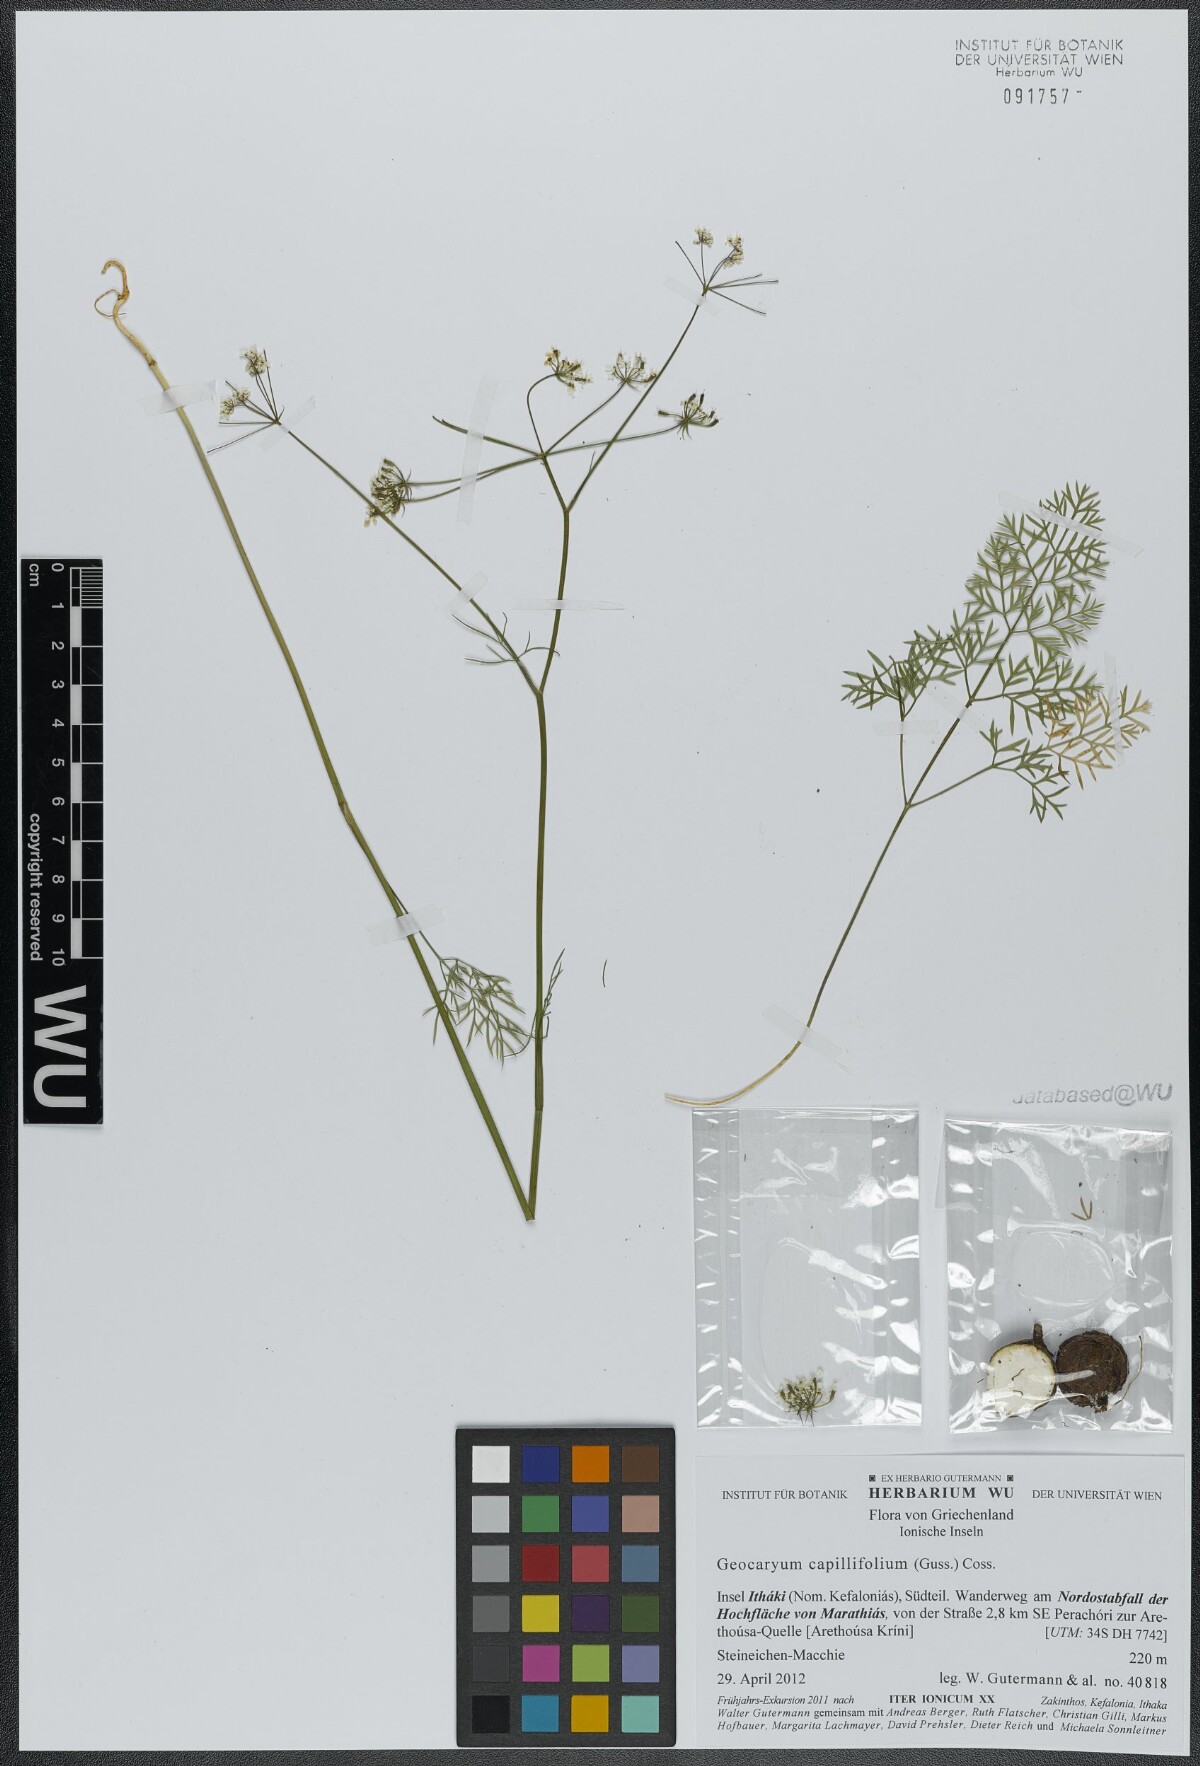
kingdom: Plantae
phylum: Tracheophyta
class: Magnoliopsida
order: Apiales
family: Apiaceae
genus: Geocaryum
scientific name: Geocaryum capillifolium
